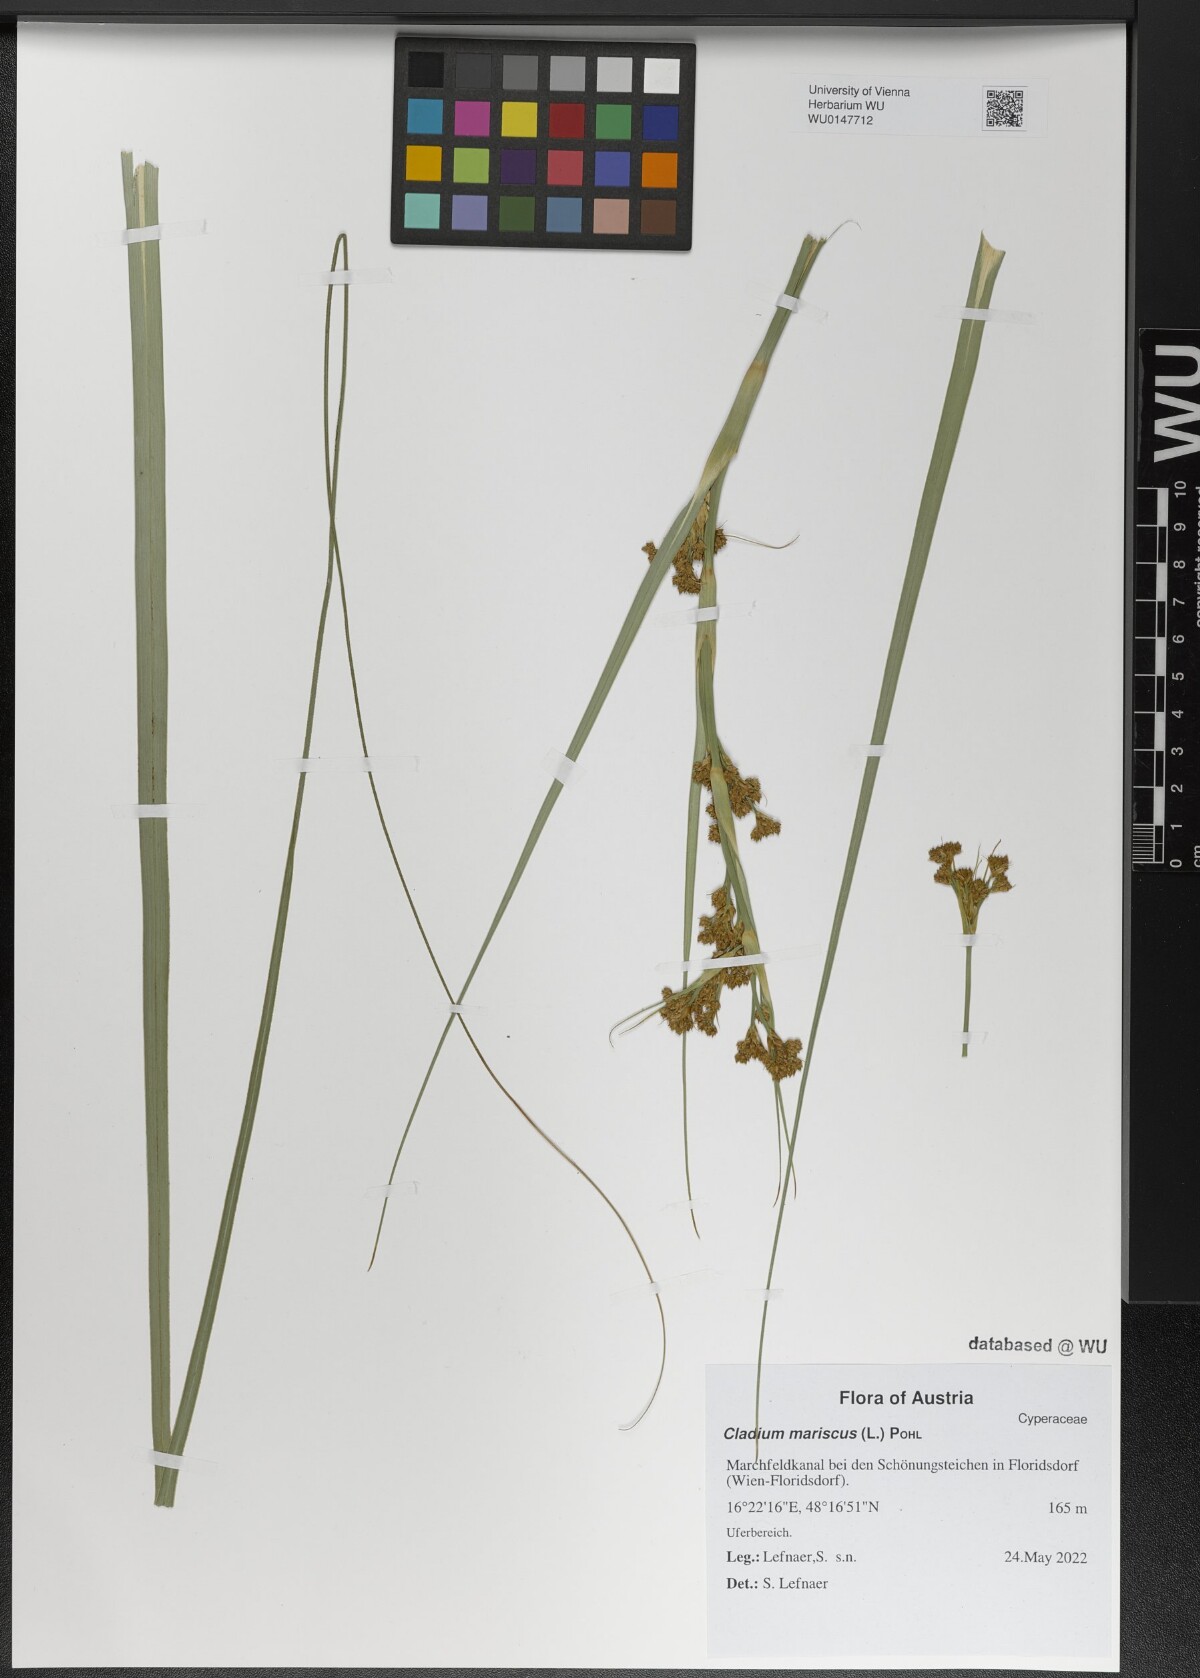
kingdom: Plantae
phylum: Tracheophyta
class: Liliopsida
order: Poales
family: Cyperaceae
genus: Cladium
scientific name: Cladium mariscus
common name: Great fen-sedge
